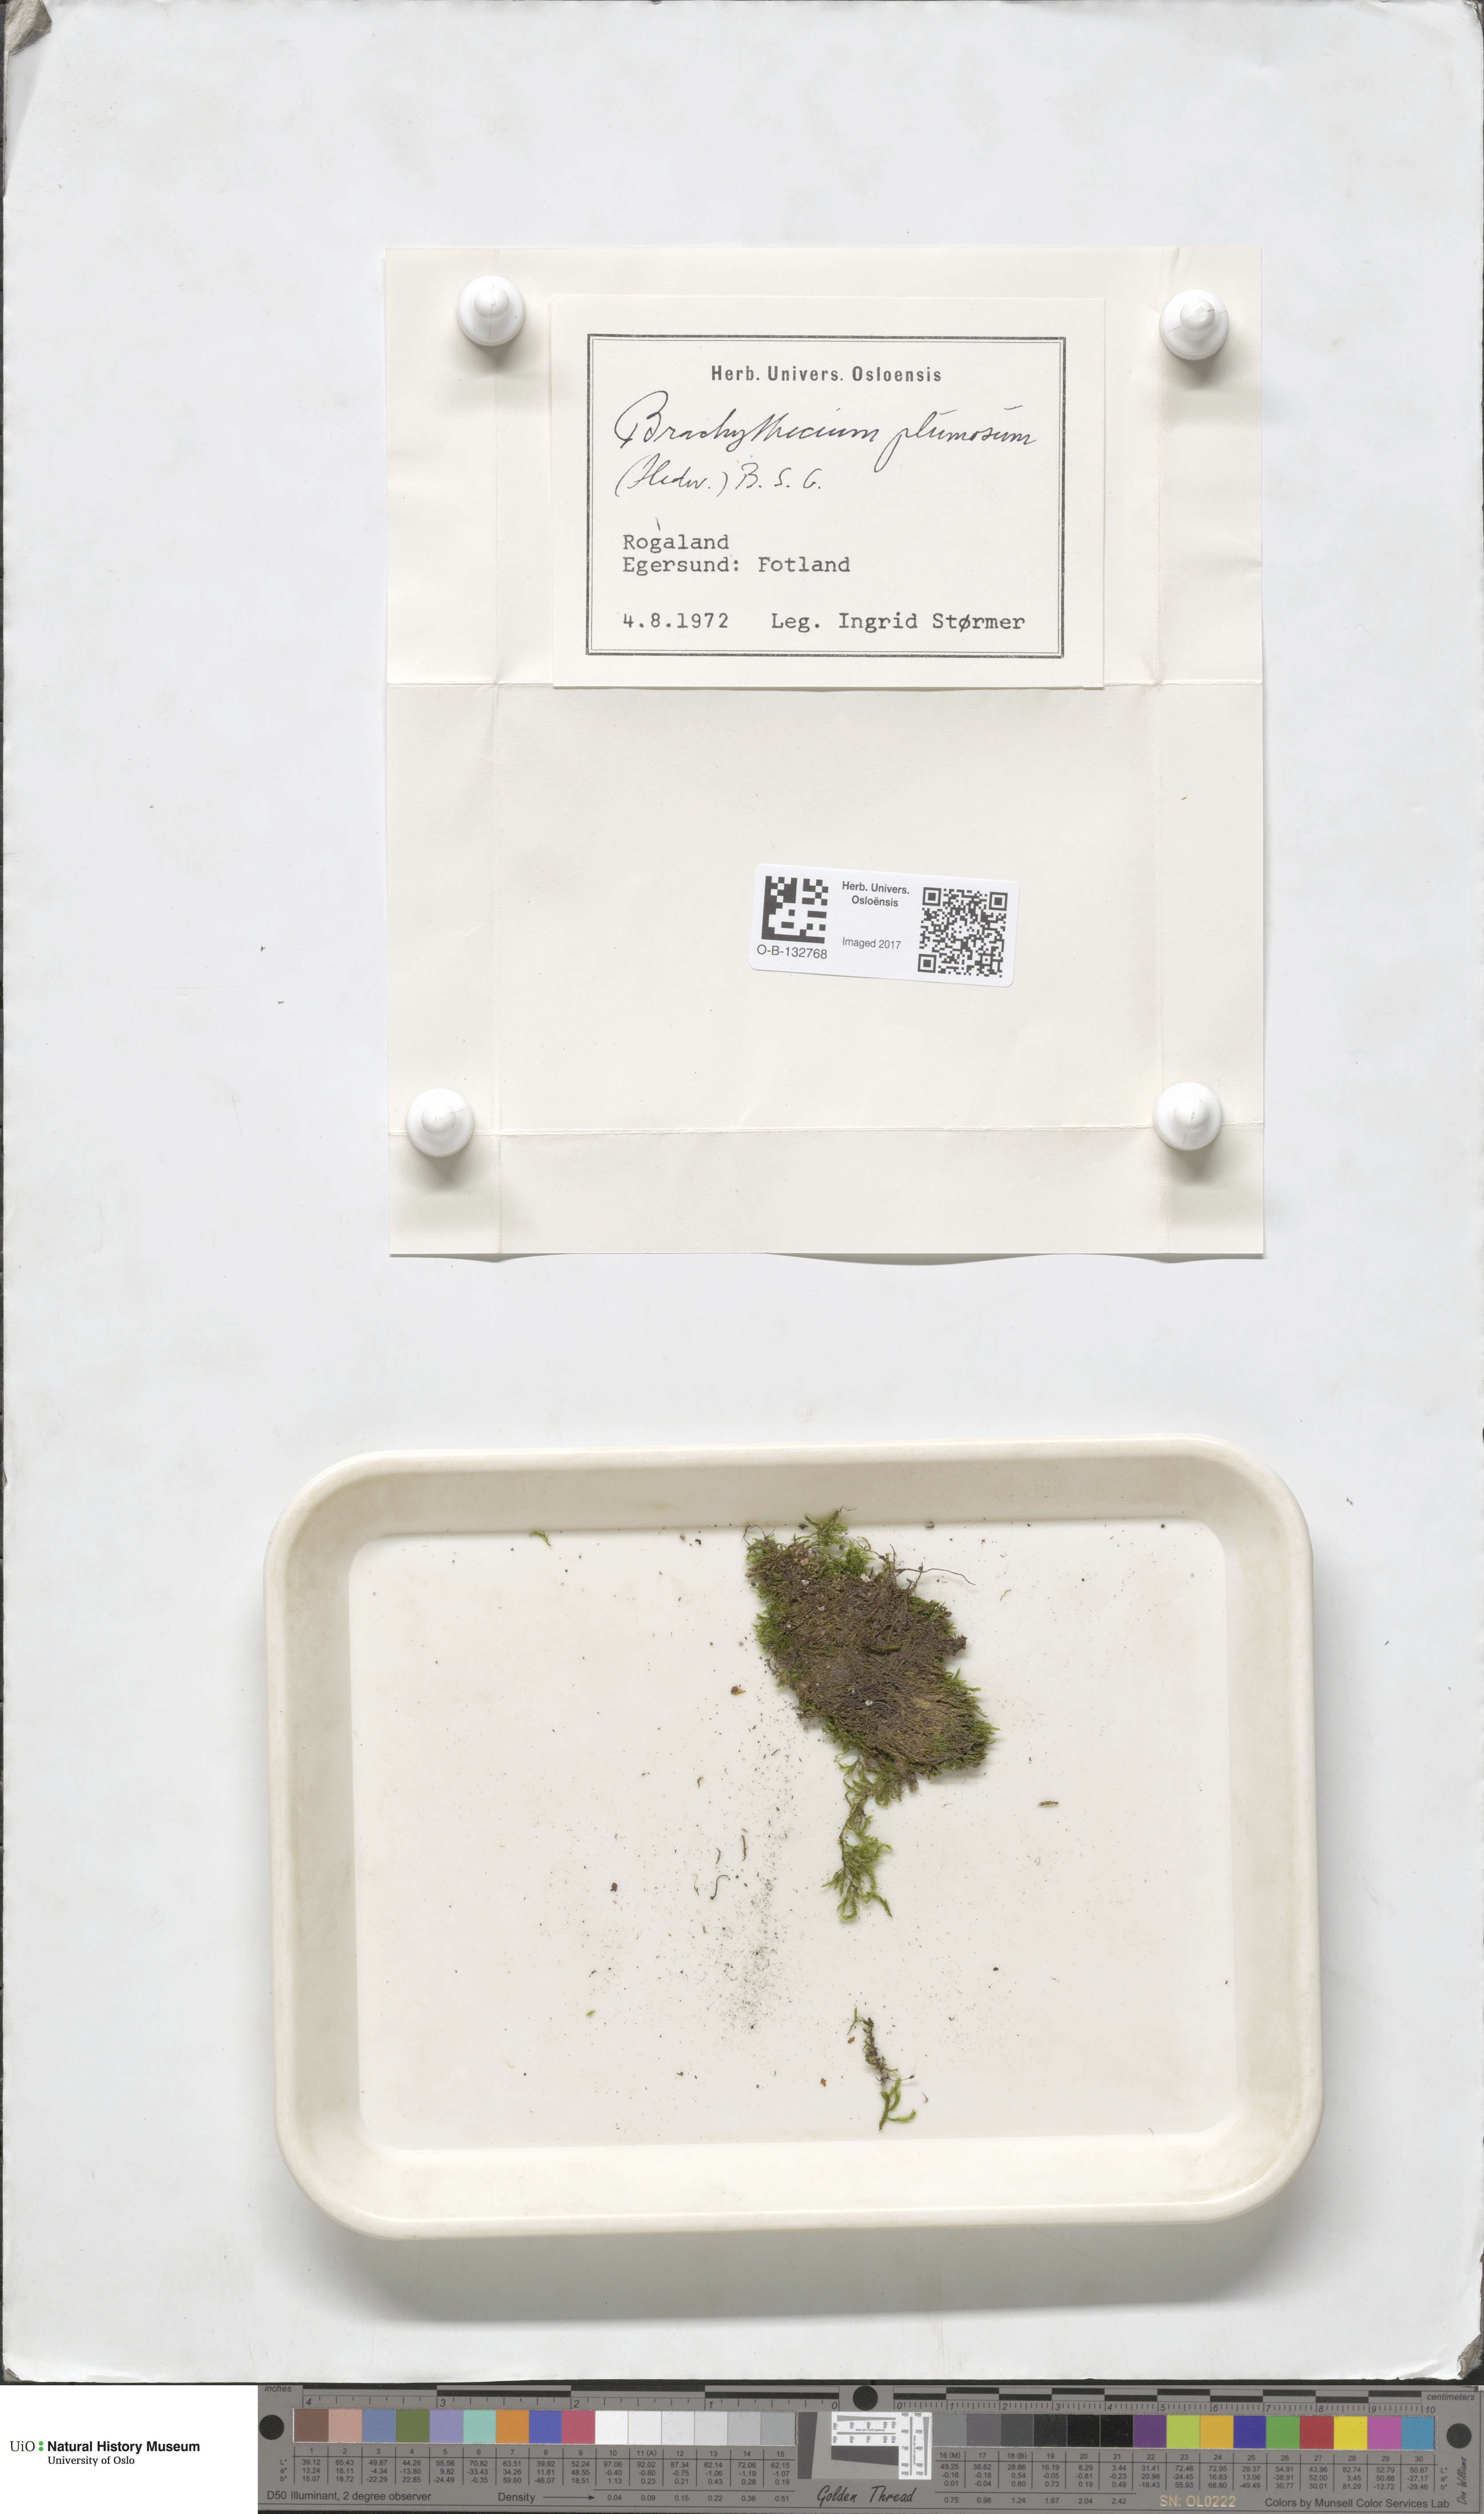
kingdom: Plantae
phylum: Bryophyta
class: Bryopsida
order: Hypnales
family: Brachytheciaceae
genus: Sciuro-hypnum
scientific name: Sciuro-hypnum plumosum
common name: Rusty feather-moss
